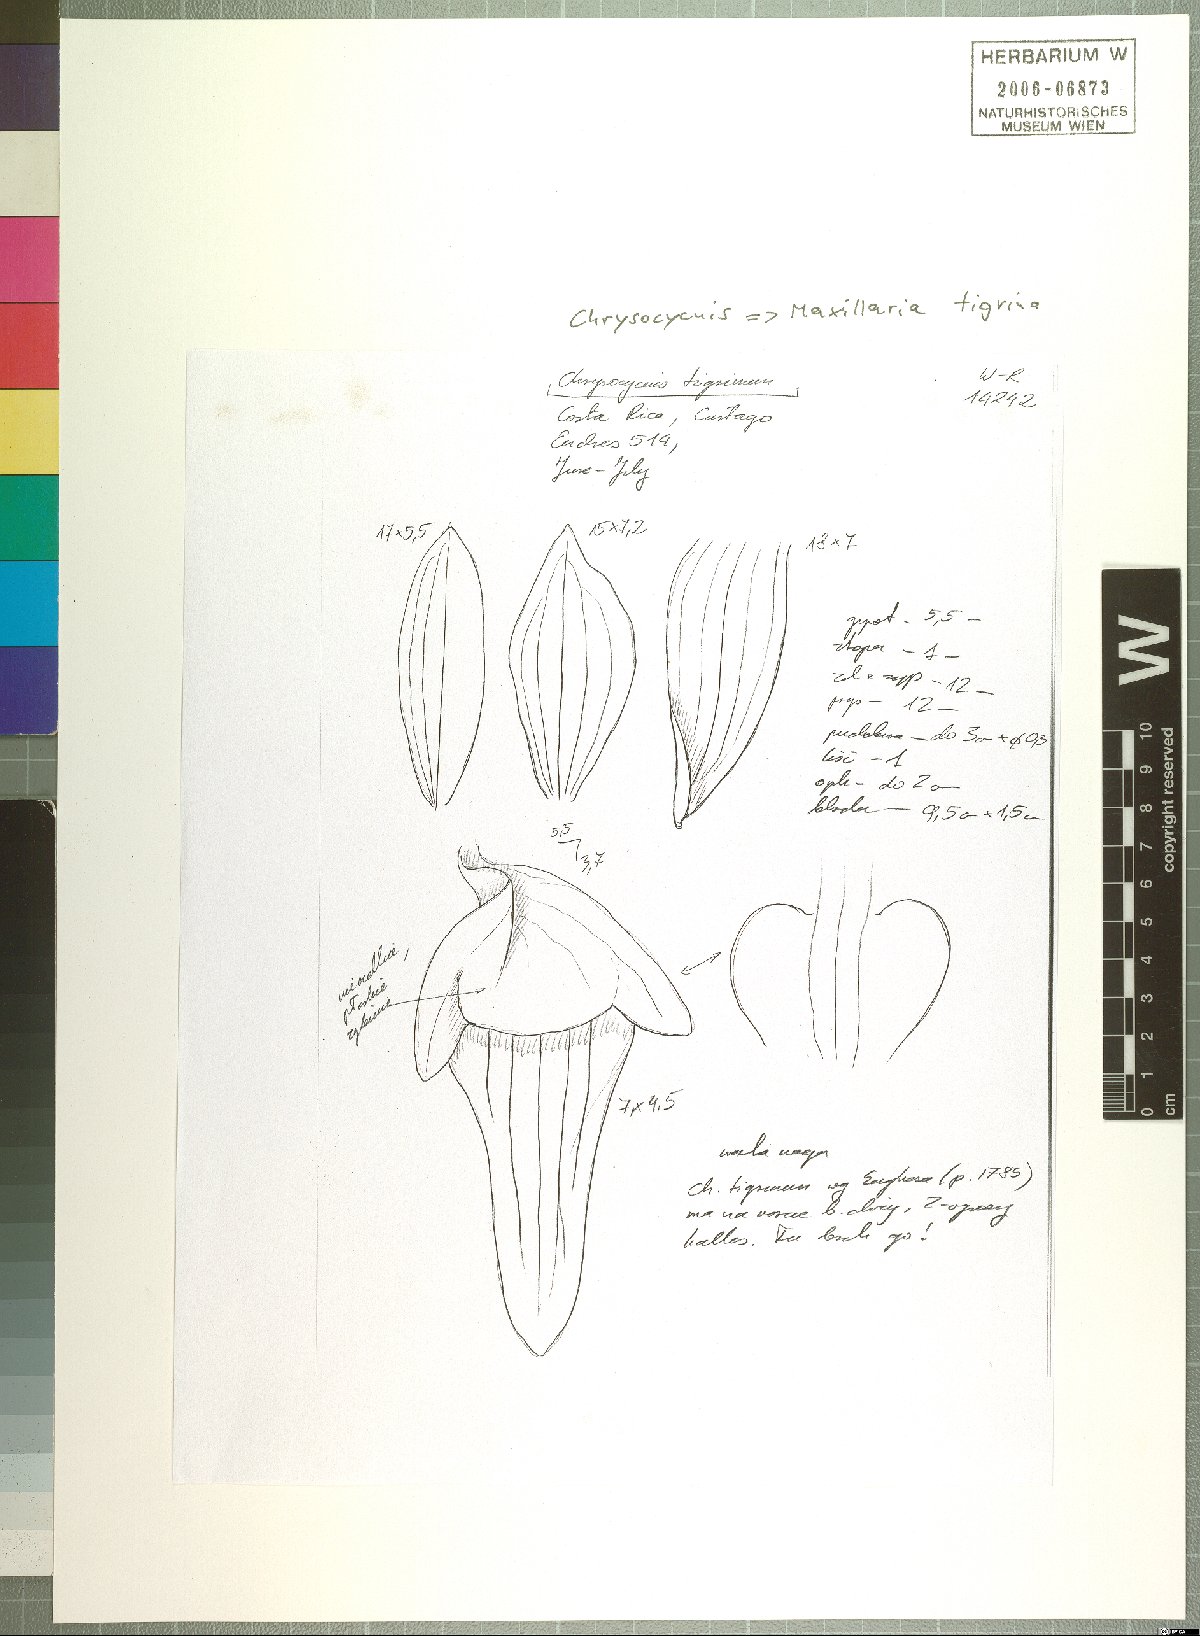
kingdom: Plantae
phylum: Tracheophyta
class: Liliopsida
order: Asparagales
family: Orchidaceae
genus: Maxillaria
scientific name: Maxillaria
